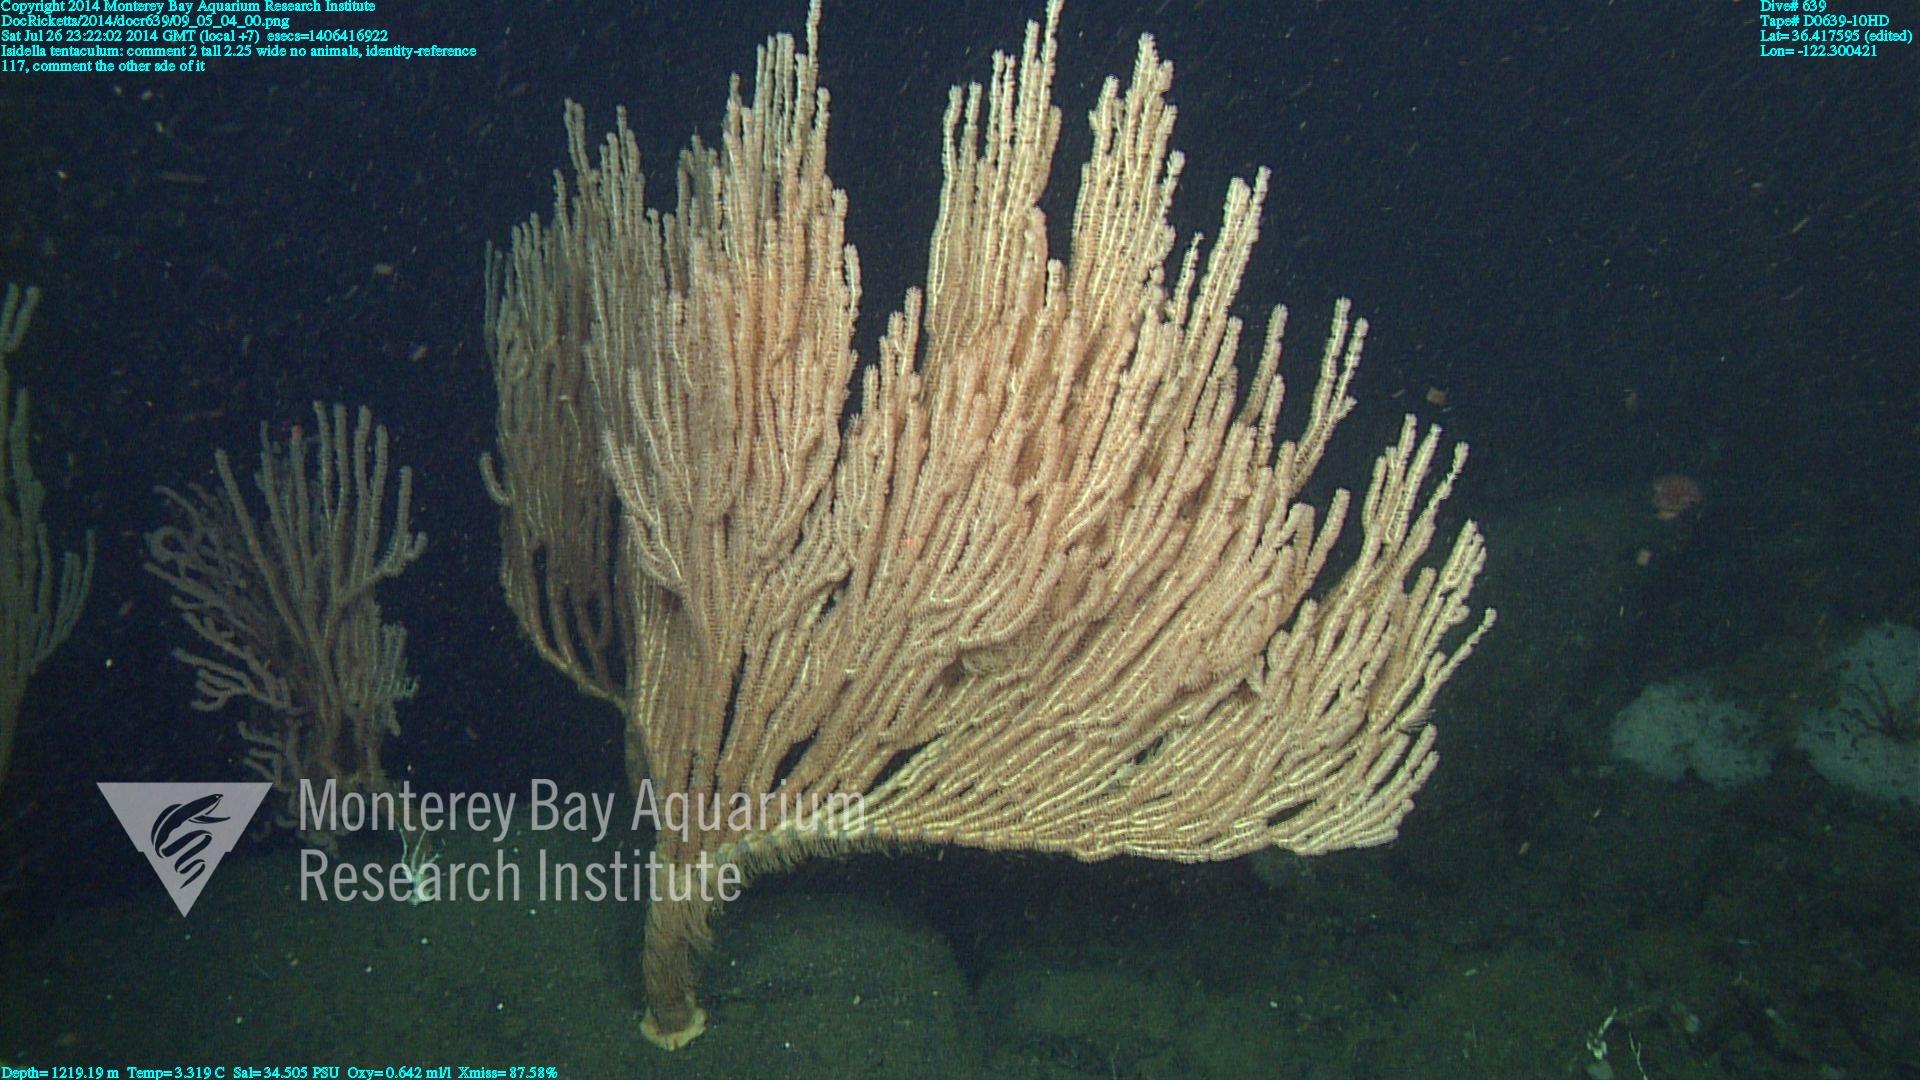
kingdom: Animalia
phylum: Cnidaria
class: Anthozoa
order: Scleralcyonacea
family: Keratoisididae
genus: Isidella
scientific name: Isidella tentaculum
